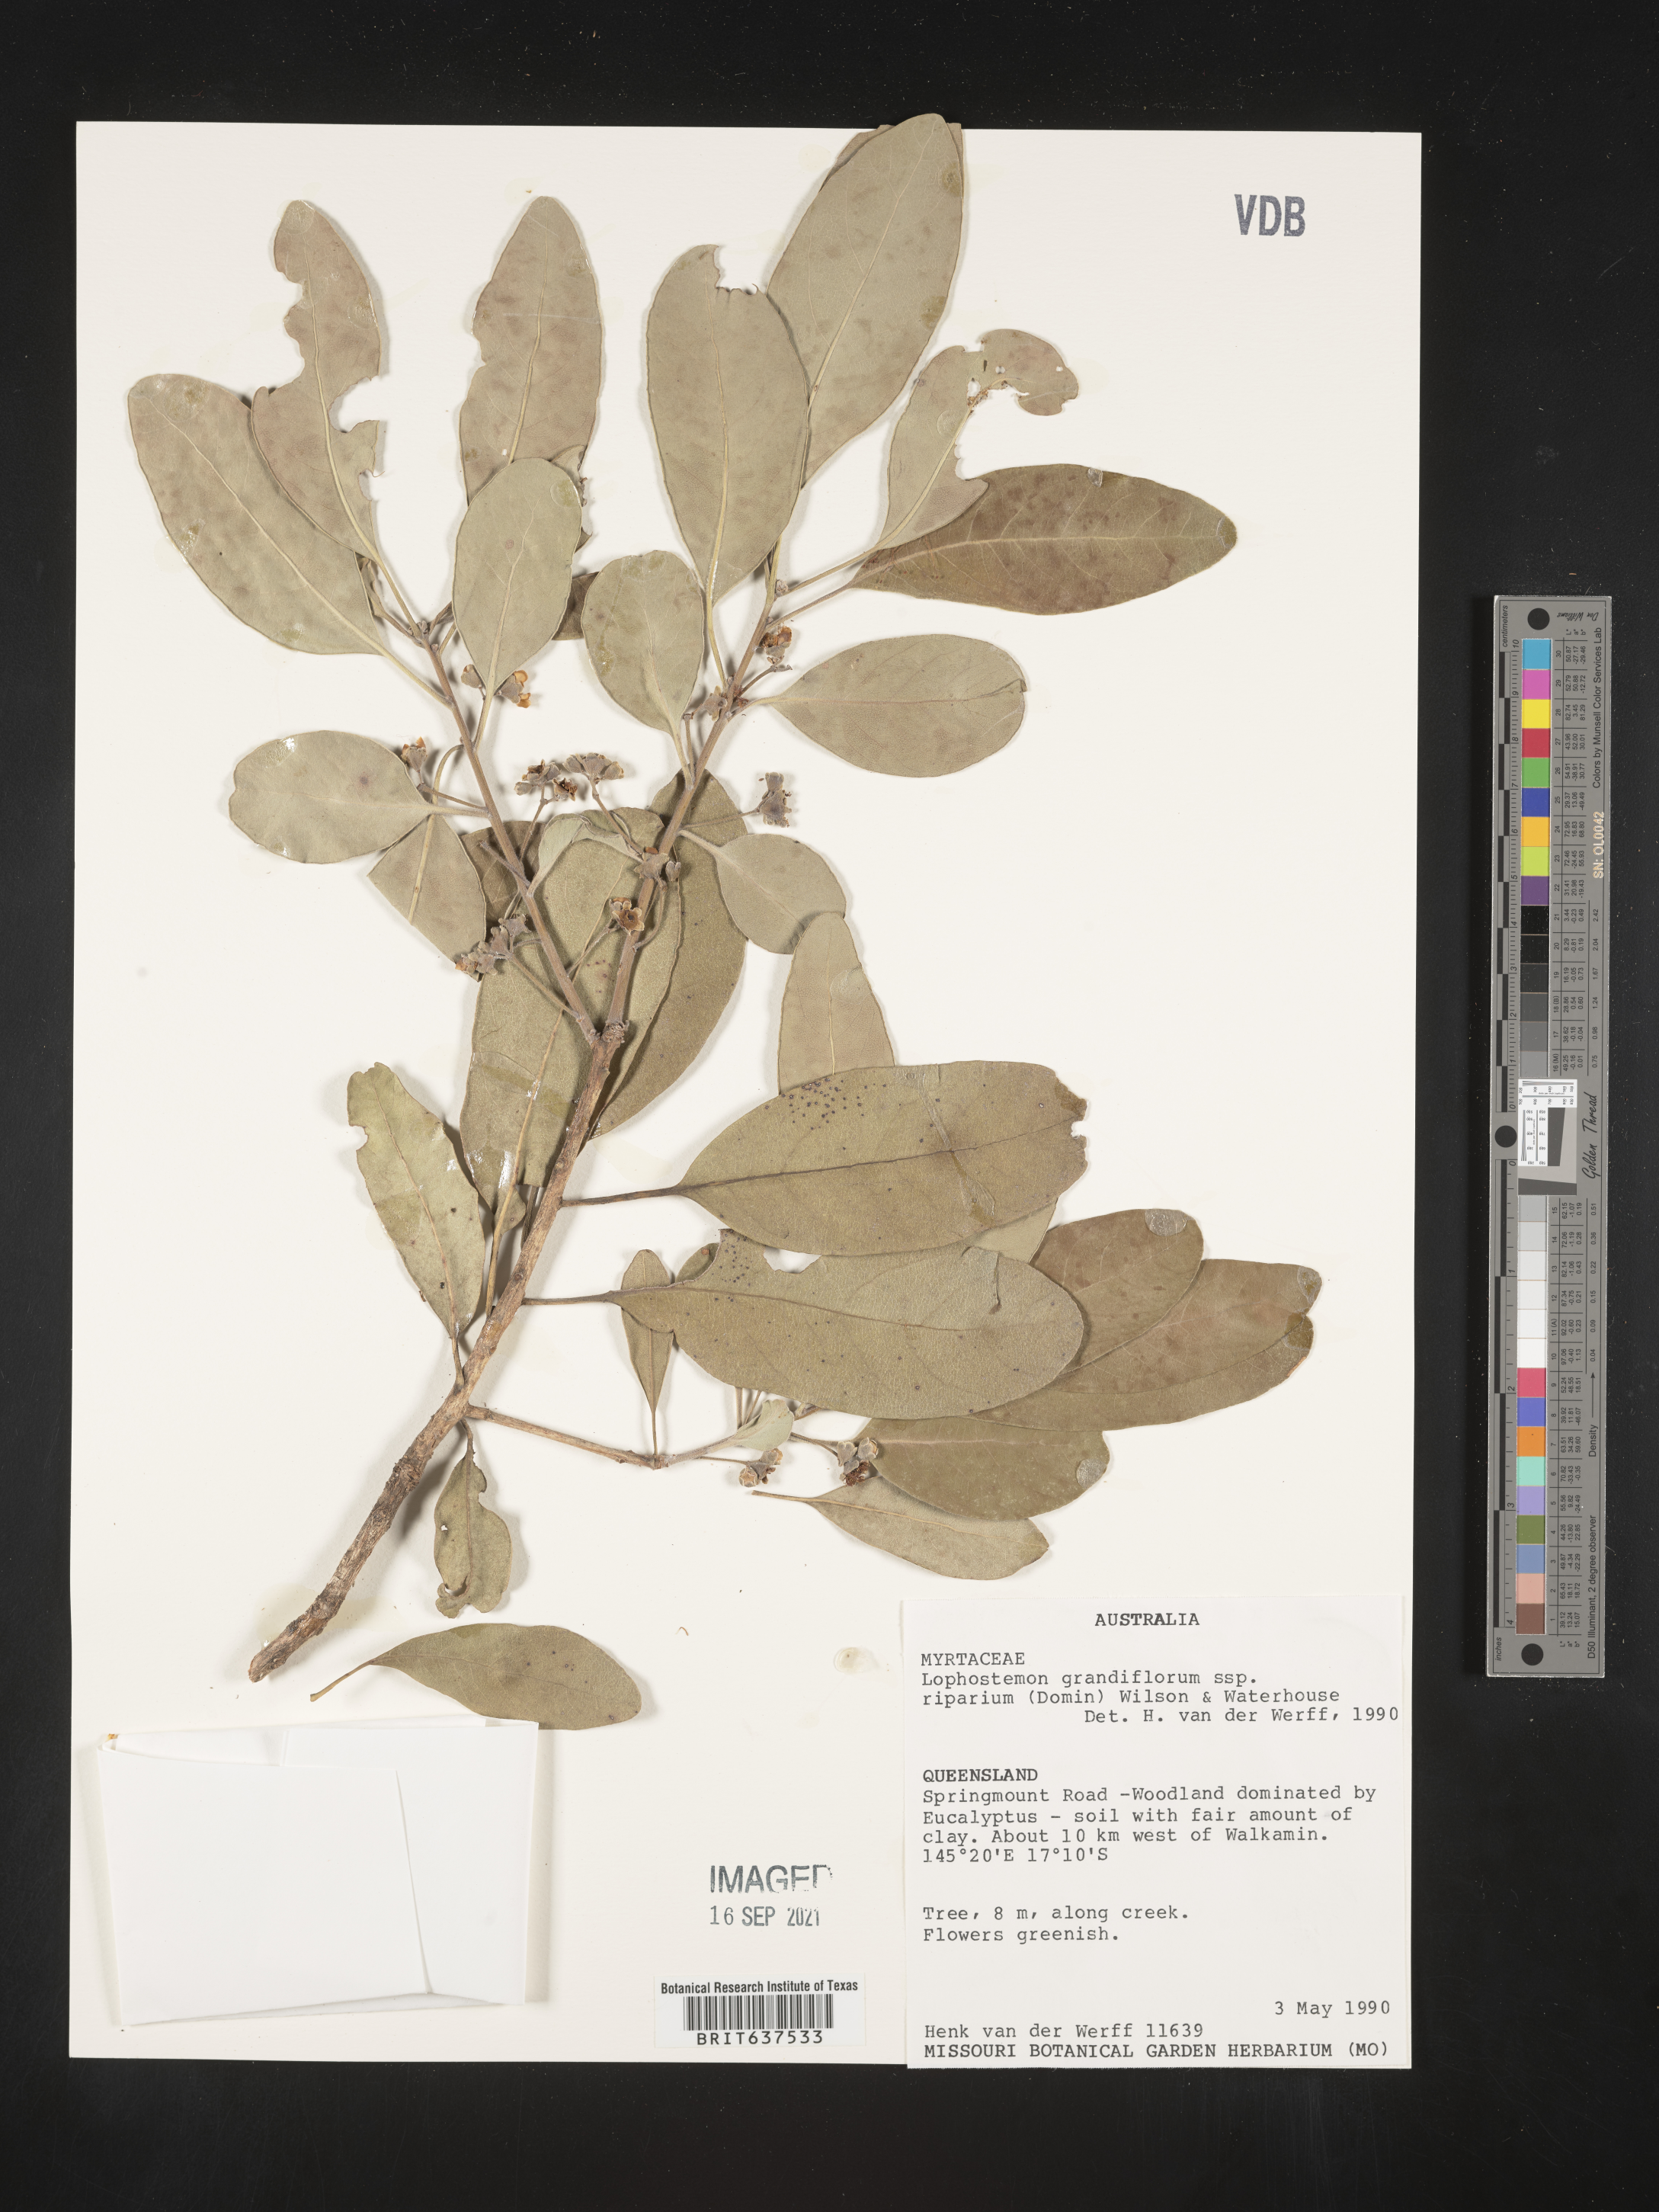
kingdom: Plantae
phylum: Tracheophyta
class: Magnoliopsida
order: Myrtales
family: Myrtaceae
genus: Lophostemon
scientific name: Lophostemon
